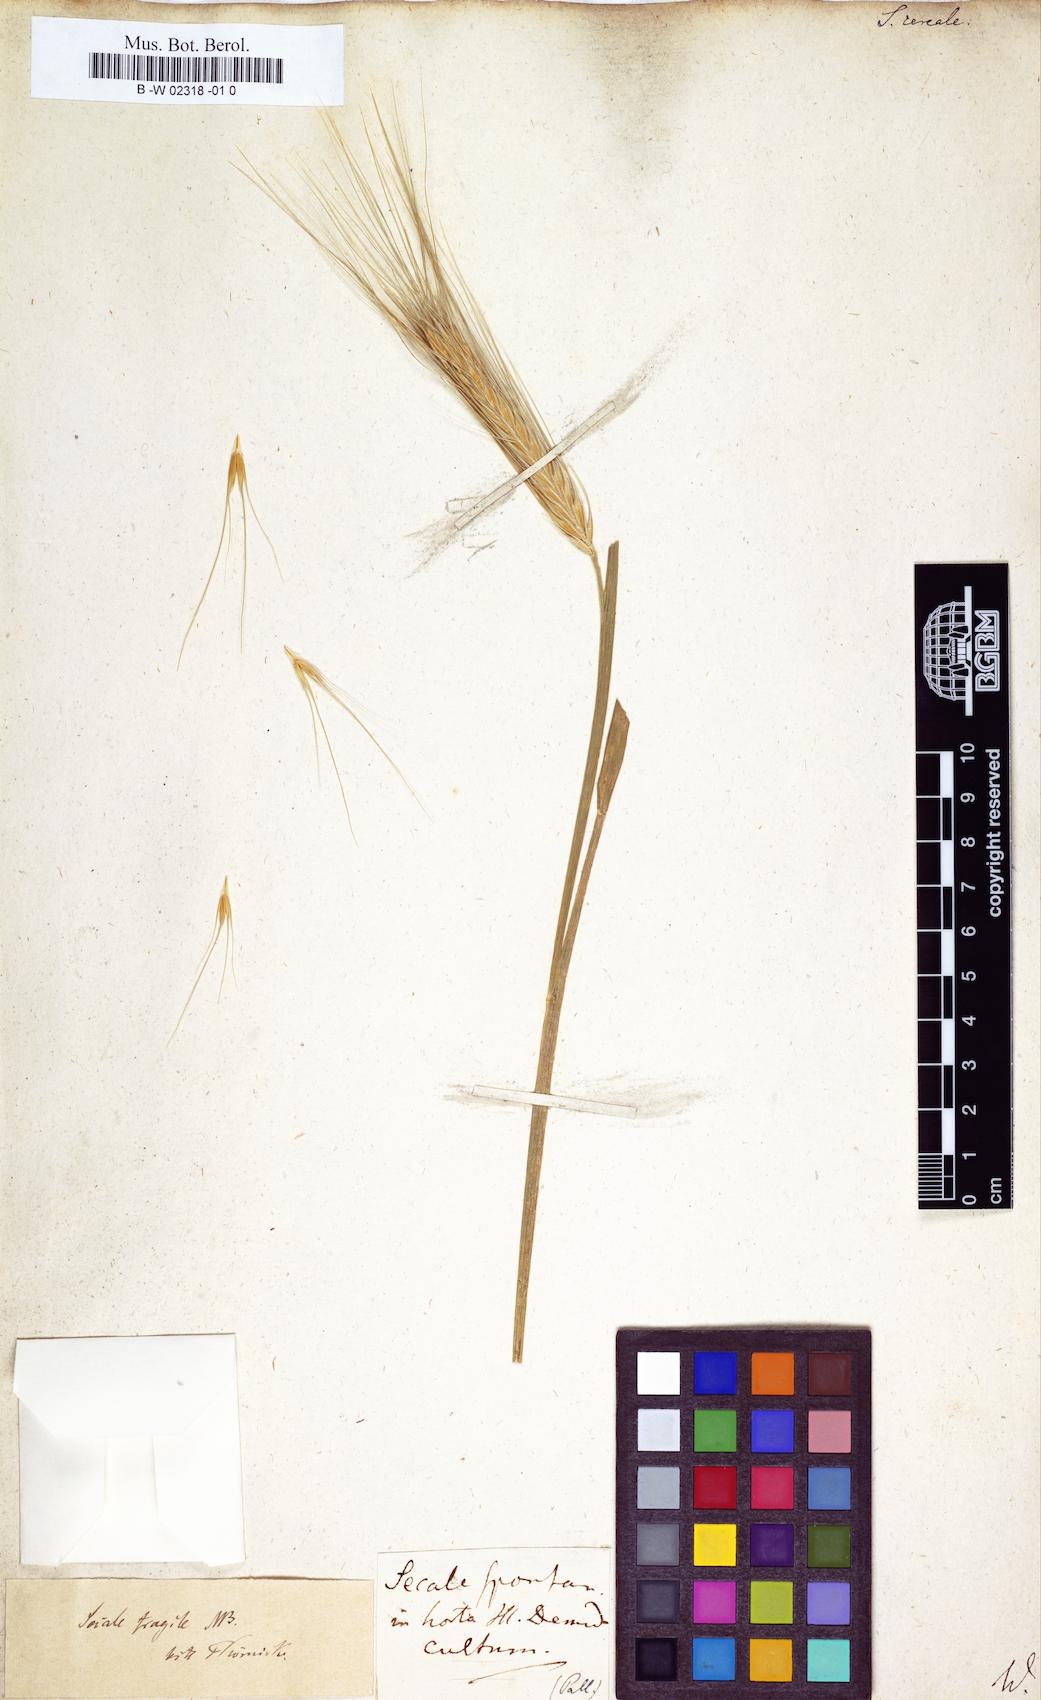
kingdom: Plantae
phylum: Tracheophyta
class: Liliopsida
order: Poales
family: Poaceae
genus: Secale
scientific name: Secale cereale
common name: Rye
